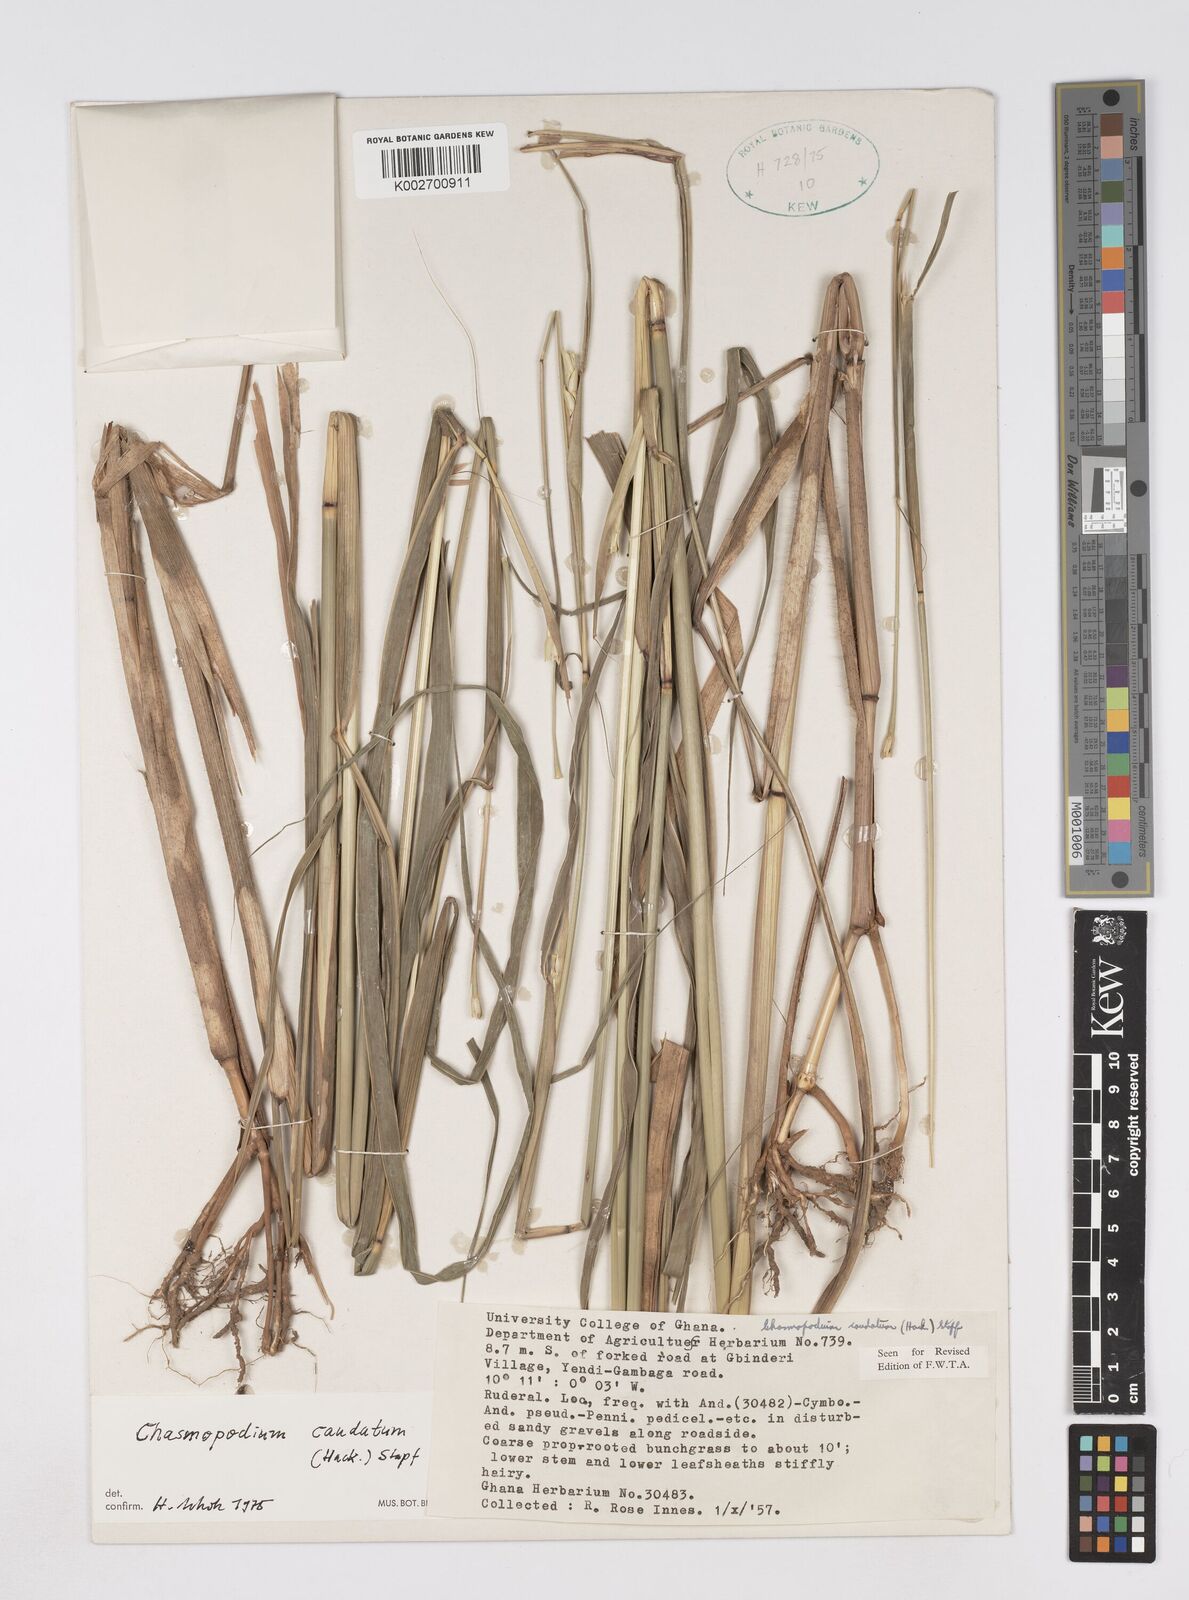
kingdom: Plantae
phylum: Tracheophyta
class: Liliopsida
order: Poales
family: Poaceae
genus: Chasmopodium
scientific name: Chasmopodium caudatum
